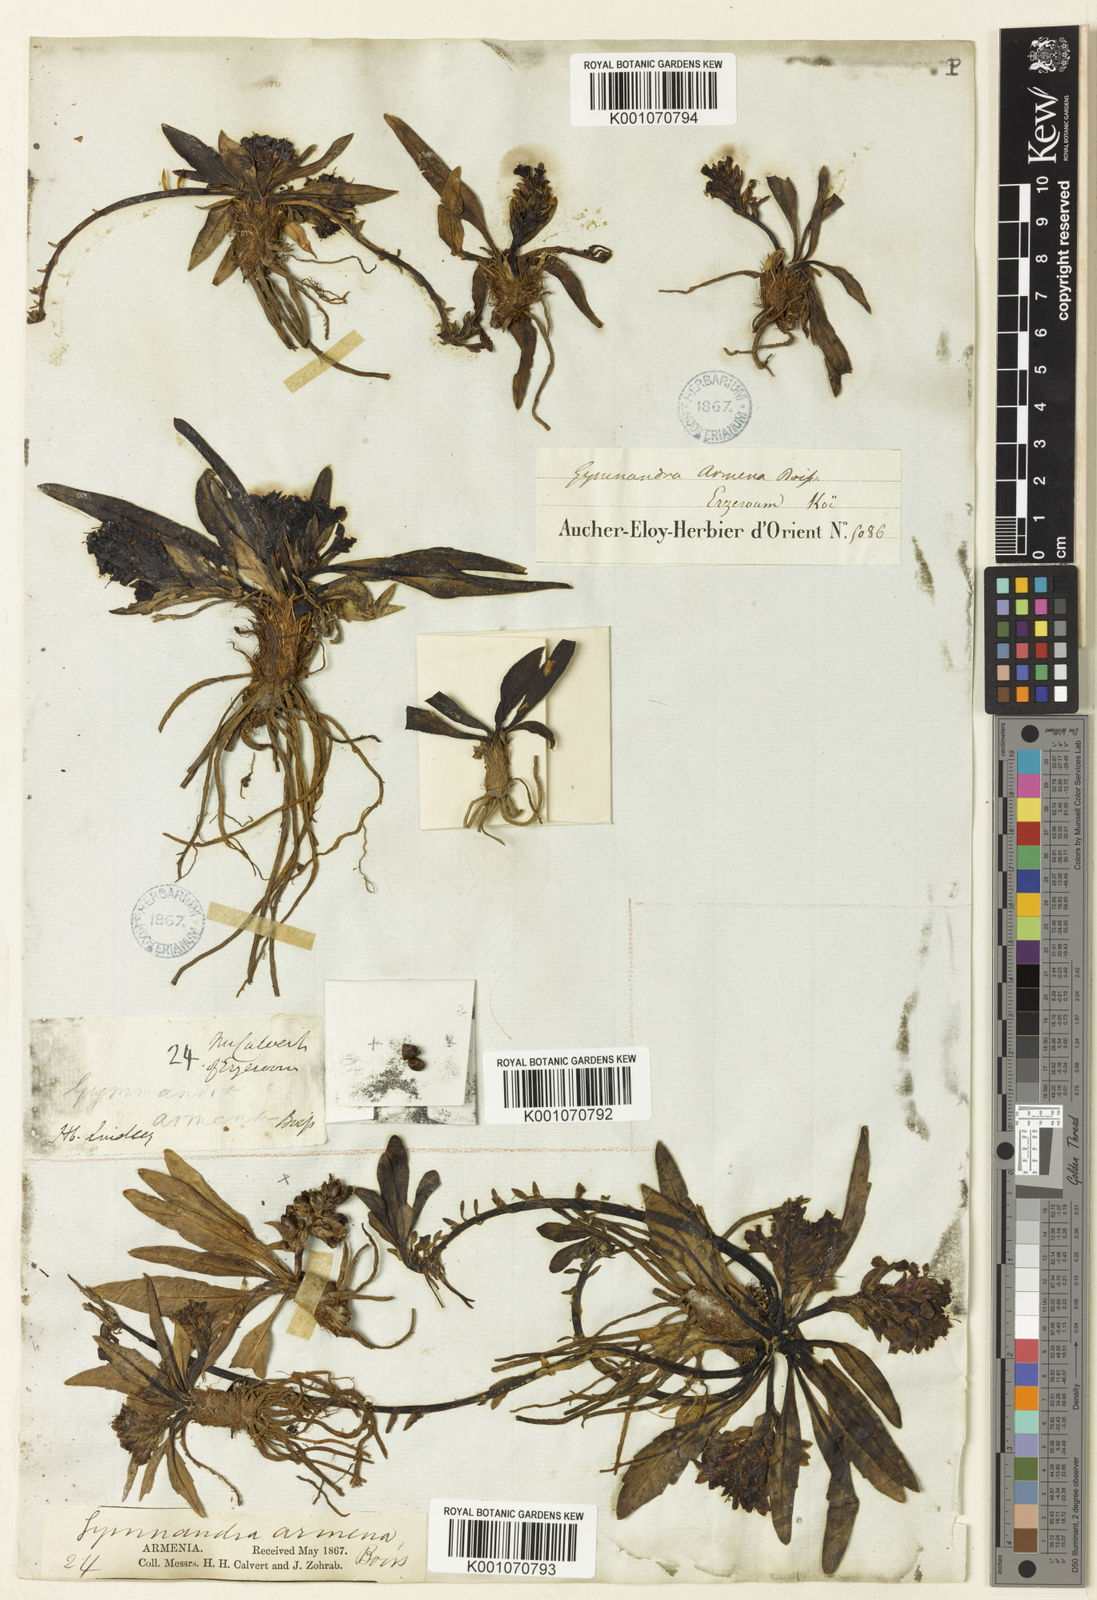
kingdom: Plantae
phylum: Tracheophyta
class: Magnoliopsida
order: Lamiales
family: Plantaginaceae
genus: Lagotis
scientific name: Lagotis stolonifera
